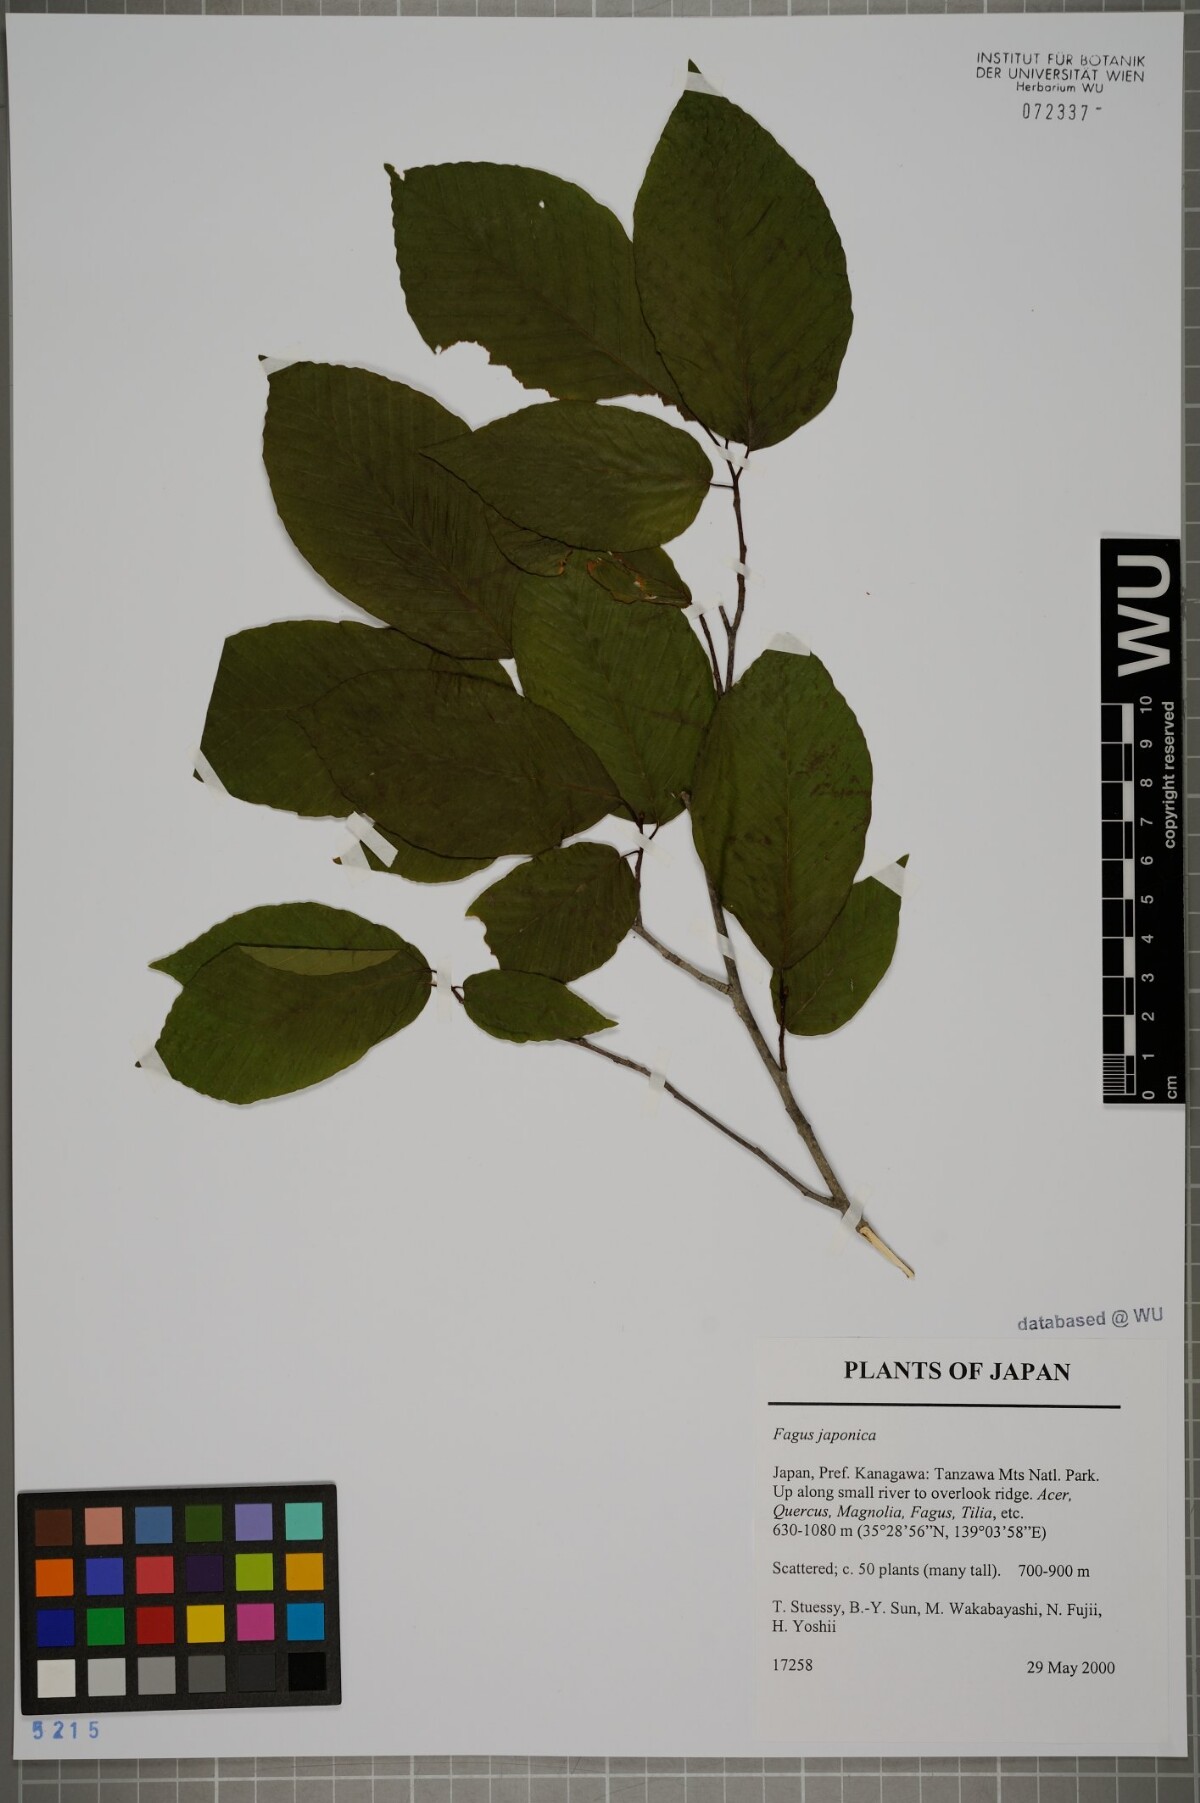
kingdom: Plantae
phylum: Tracheophyta
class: Magnoliopsida
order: Fagales
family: Fagaceae
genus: Fagus
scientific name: Fagus japonica
